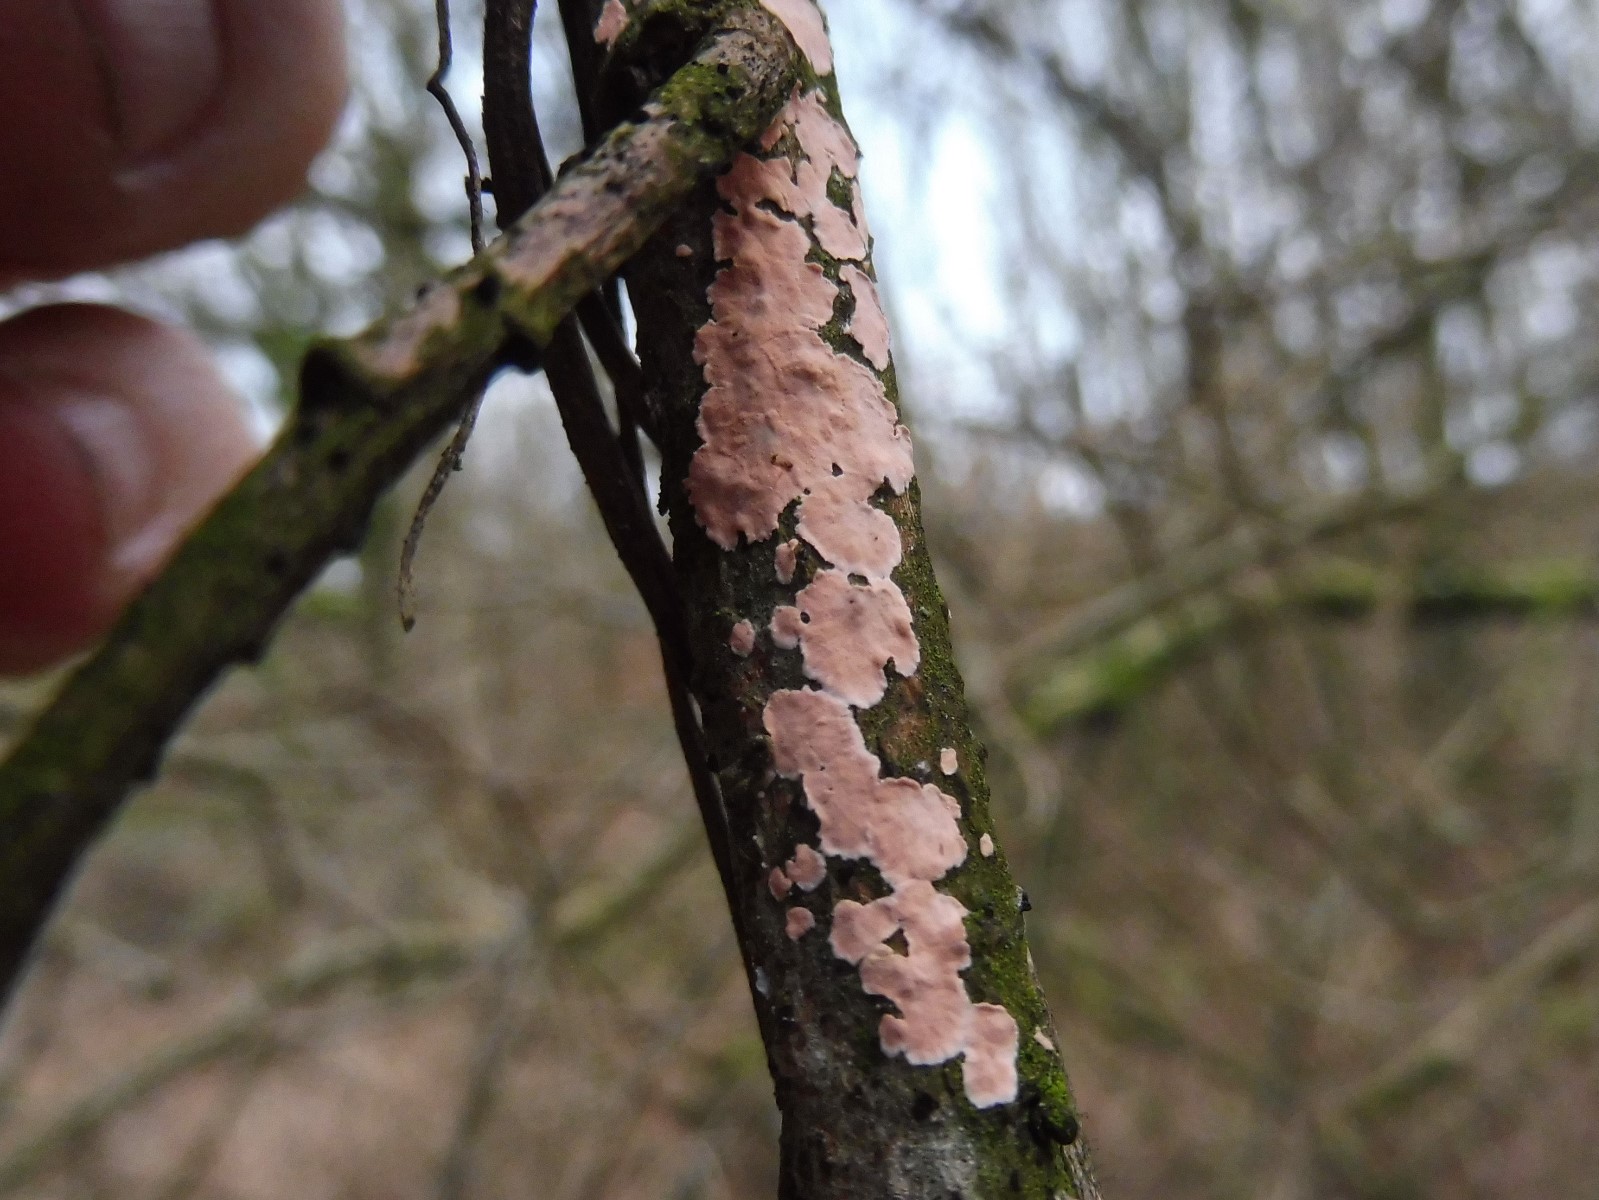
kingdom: Fungi
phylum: Basidiomycota
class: Agaricomycetes
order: Corticiales
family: Corticiaceae
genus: Corticium
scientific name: Corticium roseum
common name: rosa barkskind
